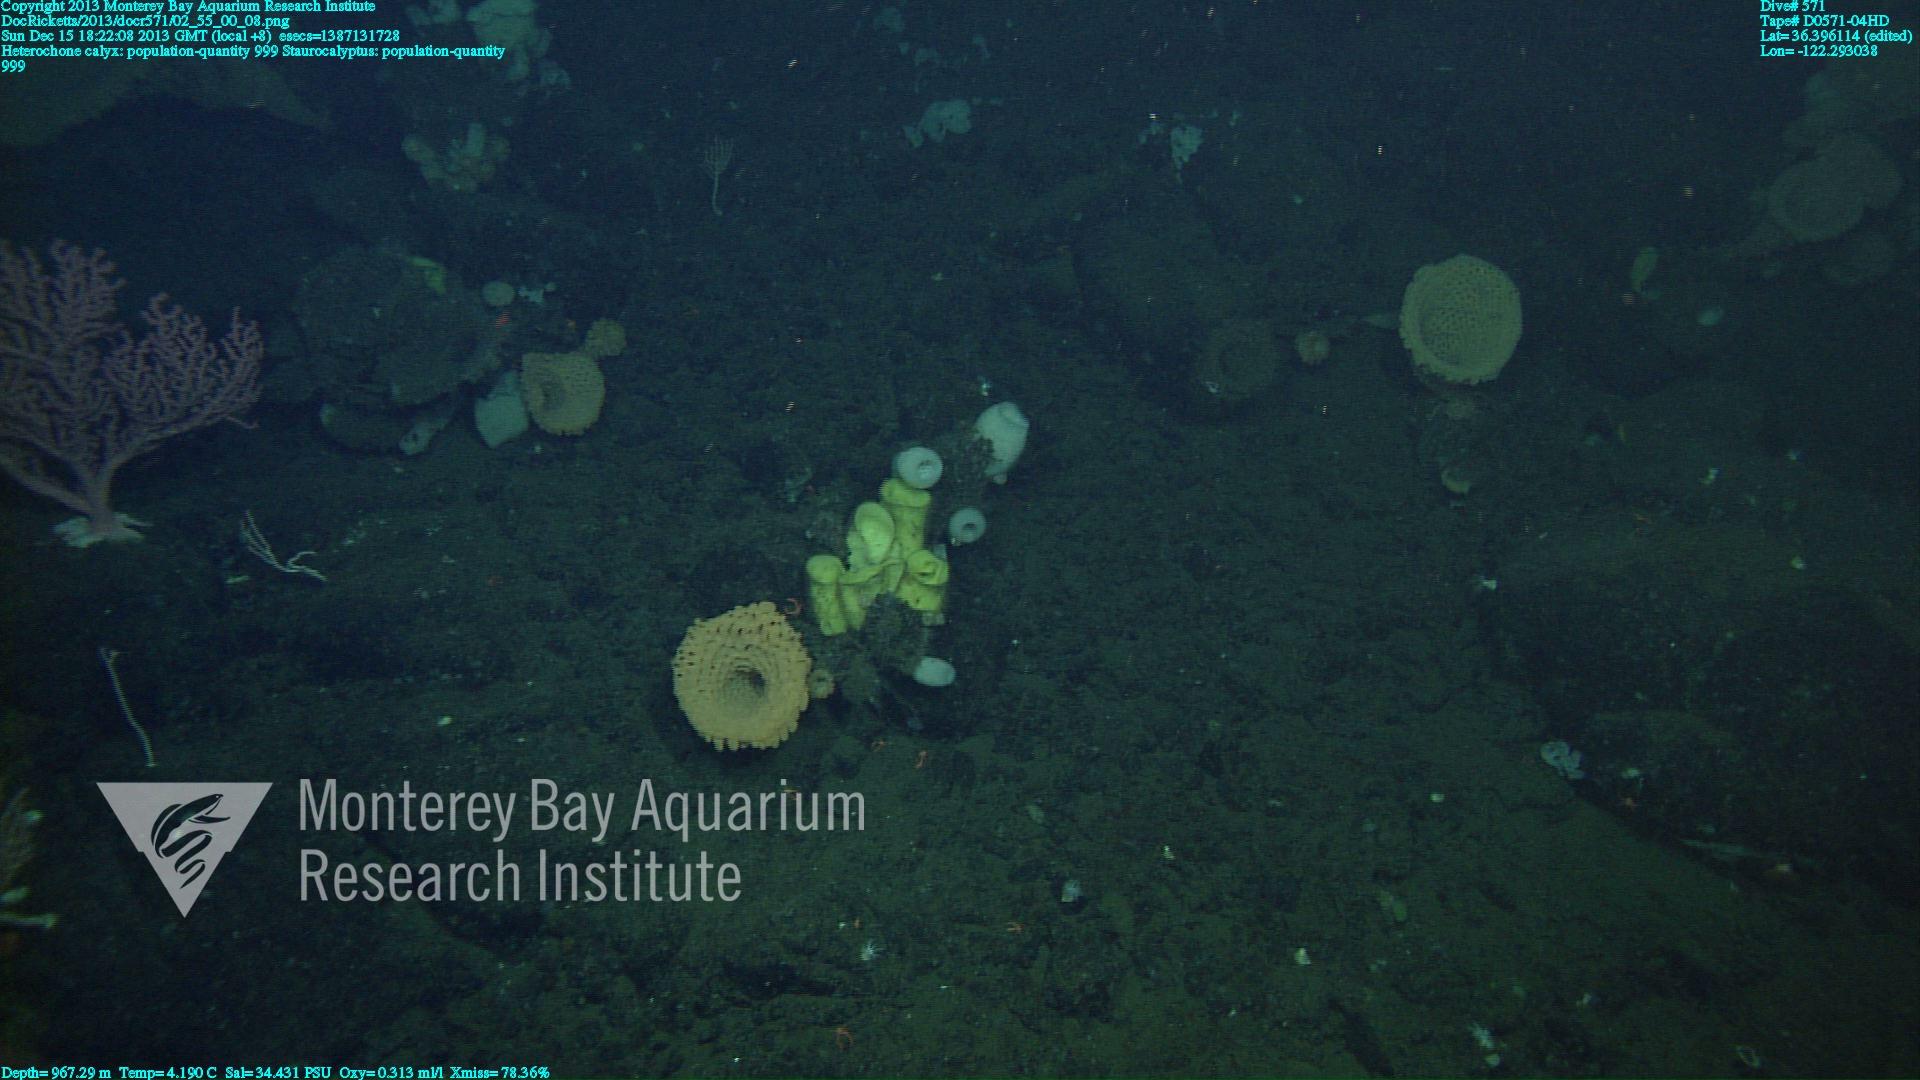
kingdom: Animalia
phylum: Porifera
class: Hexactinellida
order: Sceptrulophora
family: Aphrocallistidae
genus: Heterochone
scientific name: Heterochone calyx
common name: Fingered goblet glass sponge
